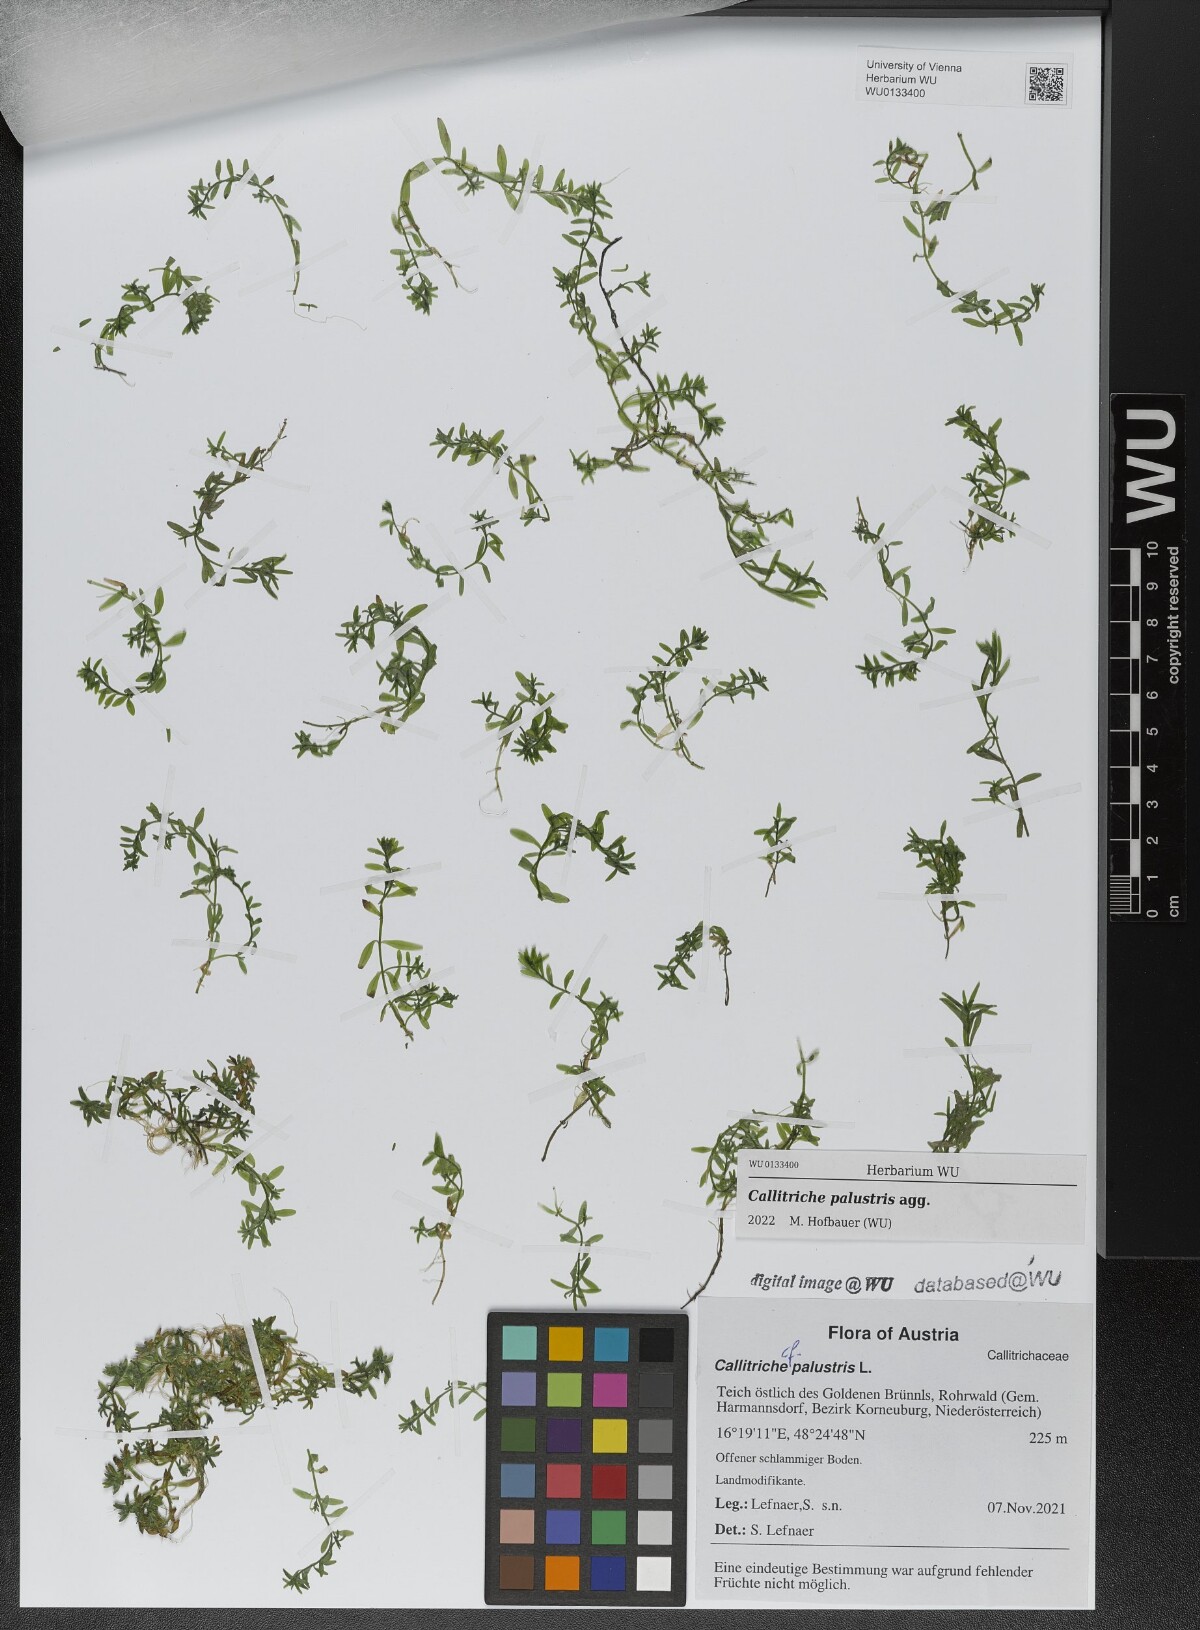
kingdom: Plantae
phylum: Tracheophyta
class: Magnoliopsida
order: Lamiales
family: Plantaginaceae
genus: Callitriche
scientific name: Callitriche palustris
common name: Spring water-starwort
